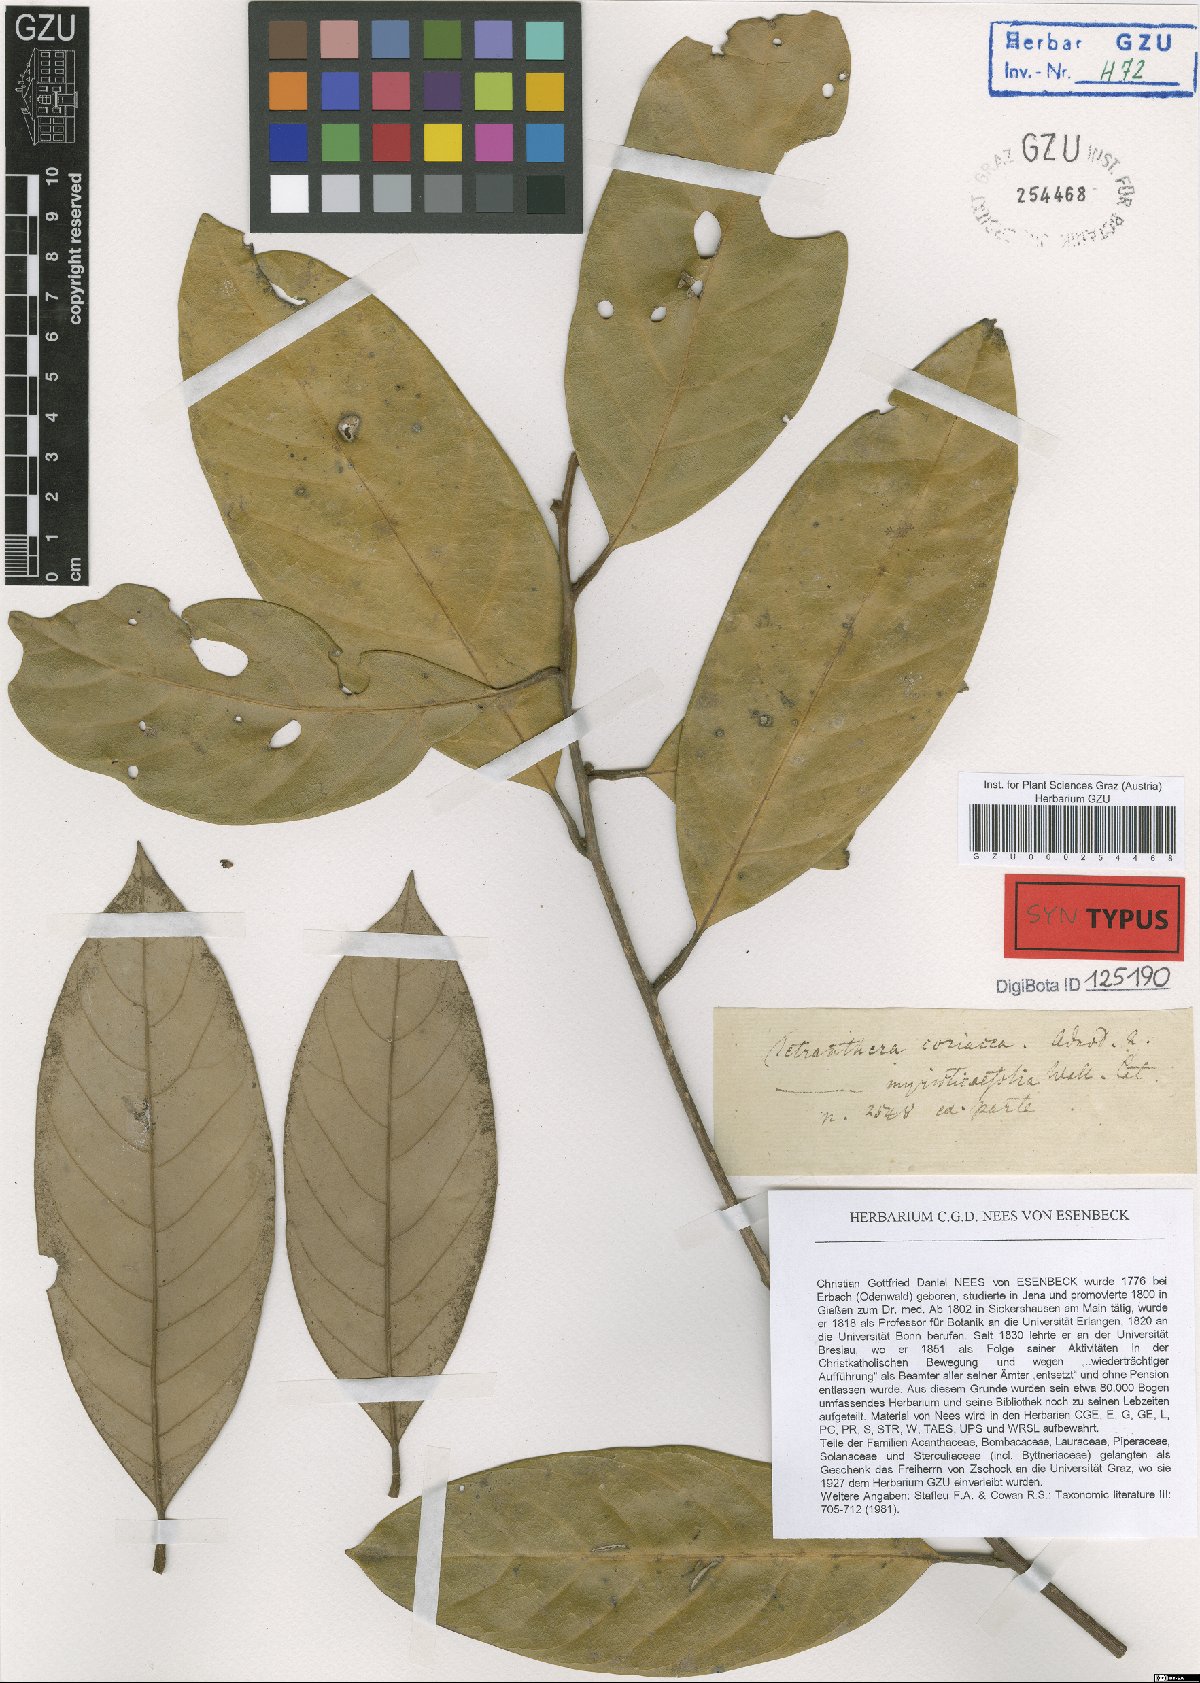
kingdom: Plantae
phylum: Tracheophyta
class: Magnoliopsida
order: Laurales
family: Lauraceae
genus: Litsea
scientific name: Litsea coriacea
